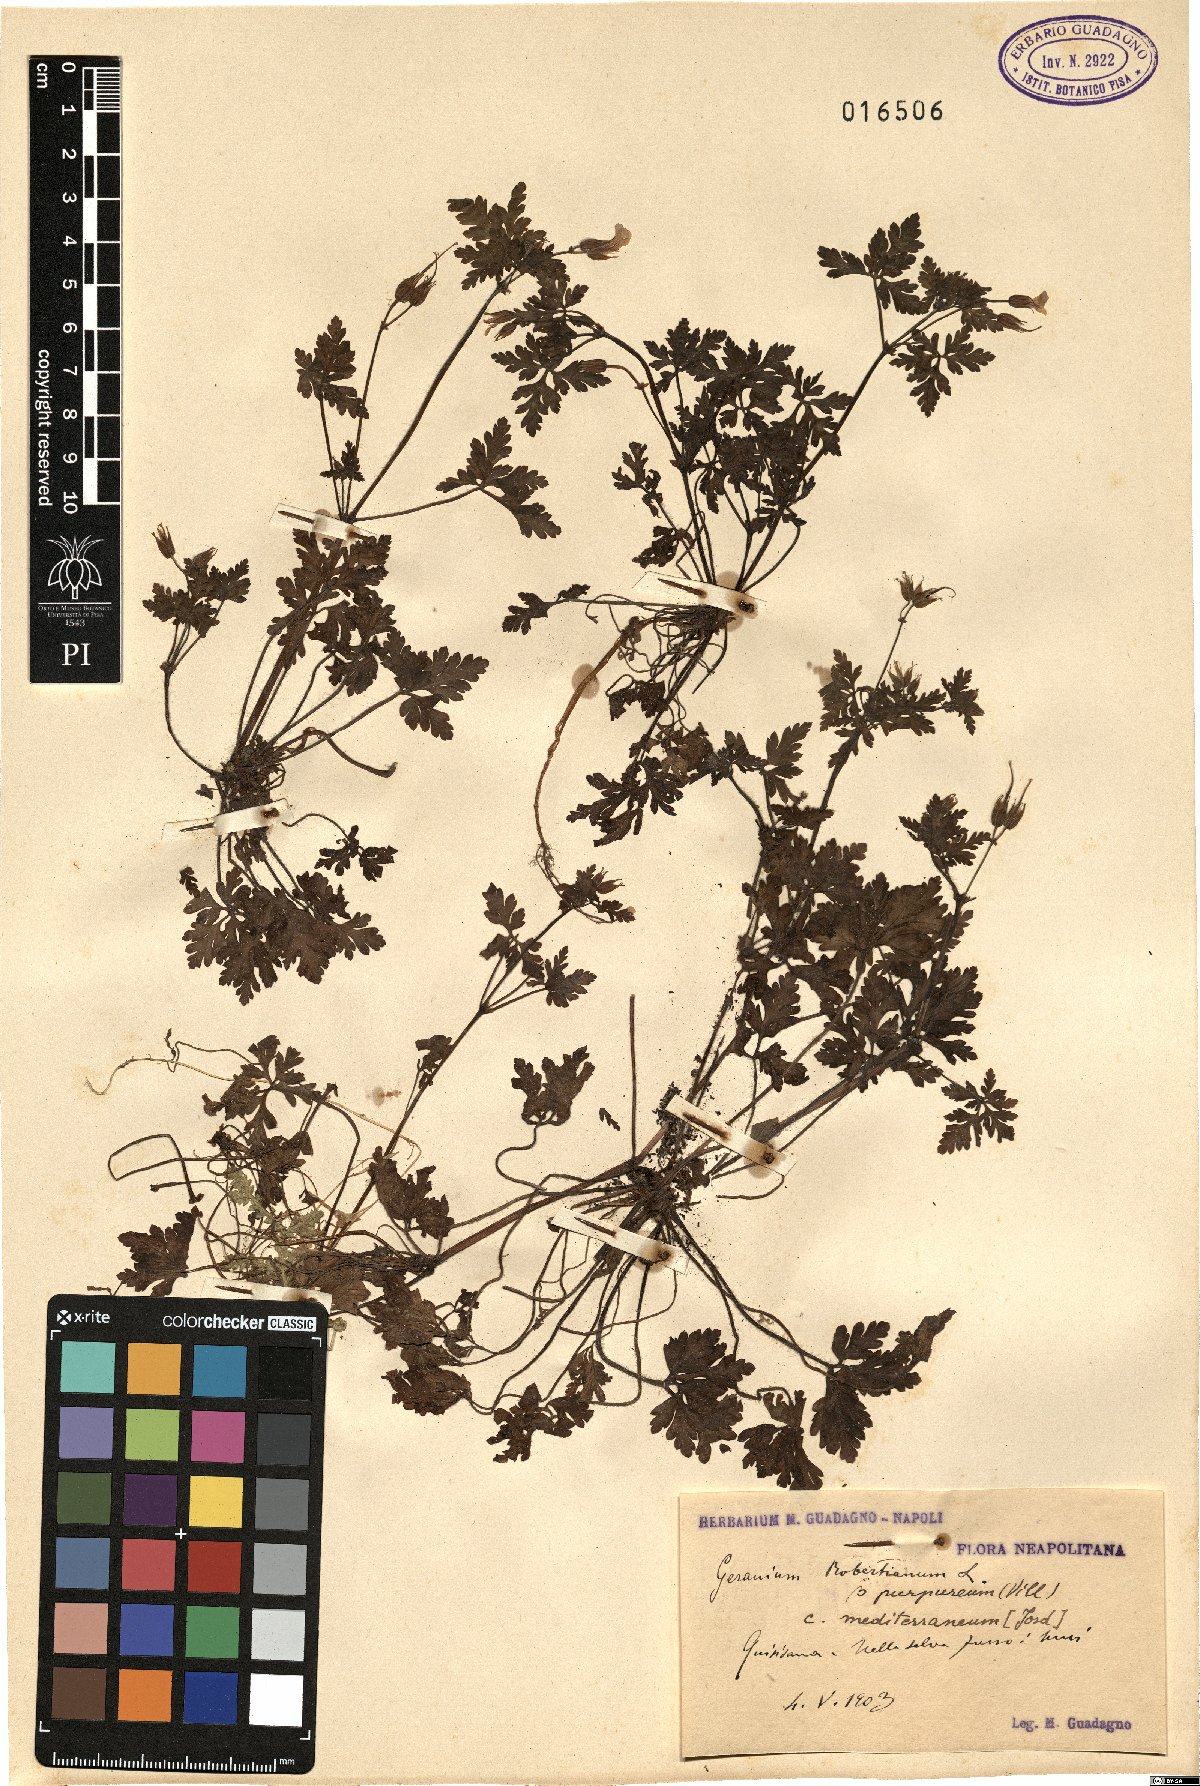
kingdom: Plantae
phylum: Tracheophyta
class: Magnoliopsida
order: Geraniales
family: Geraniaceae
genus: Geranium
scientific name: Geranium robertianum
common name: Herb-robert
